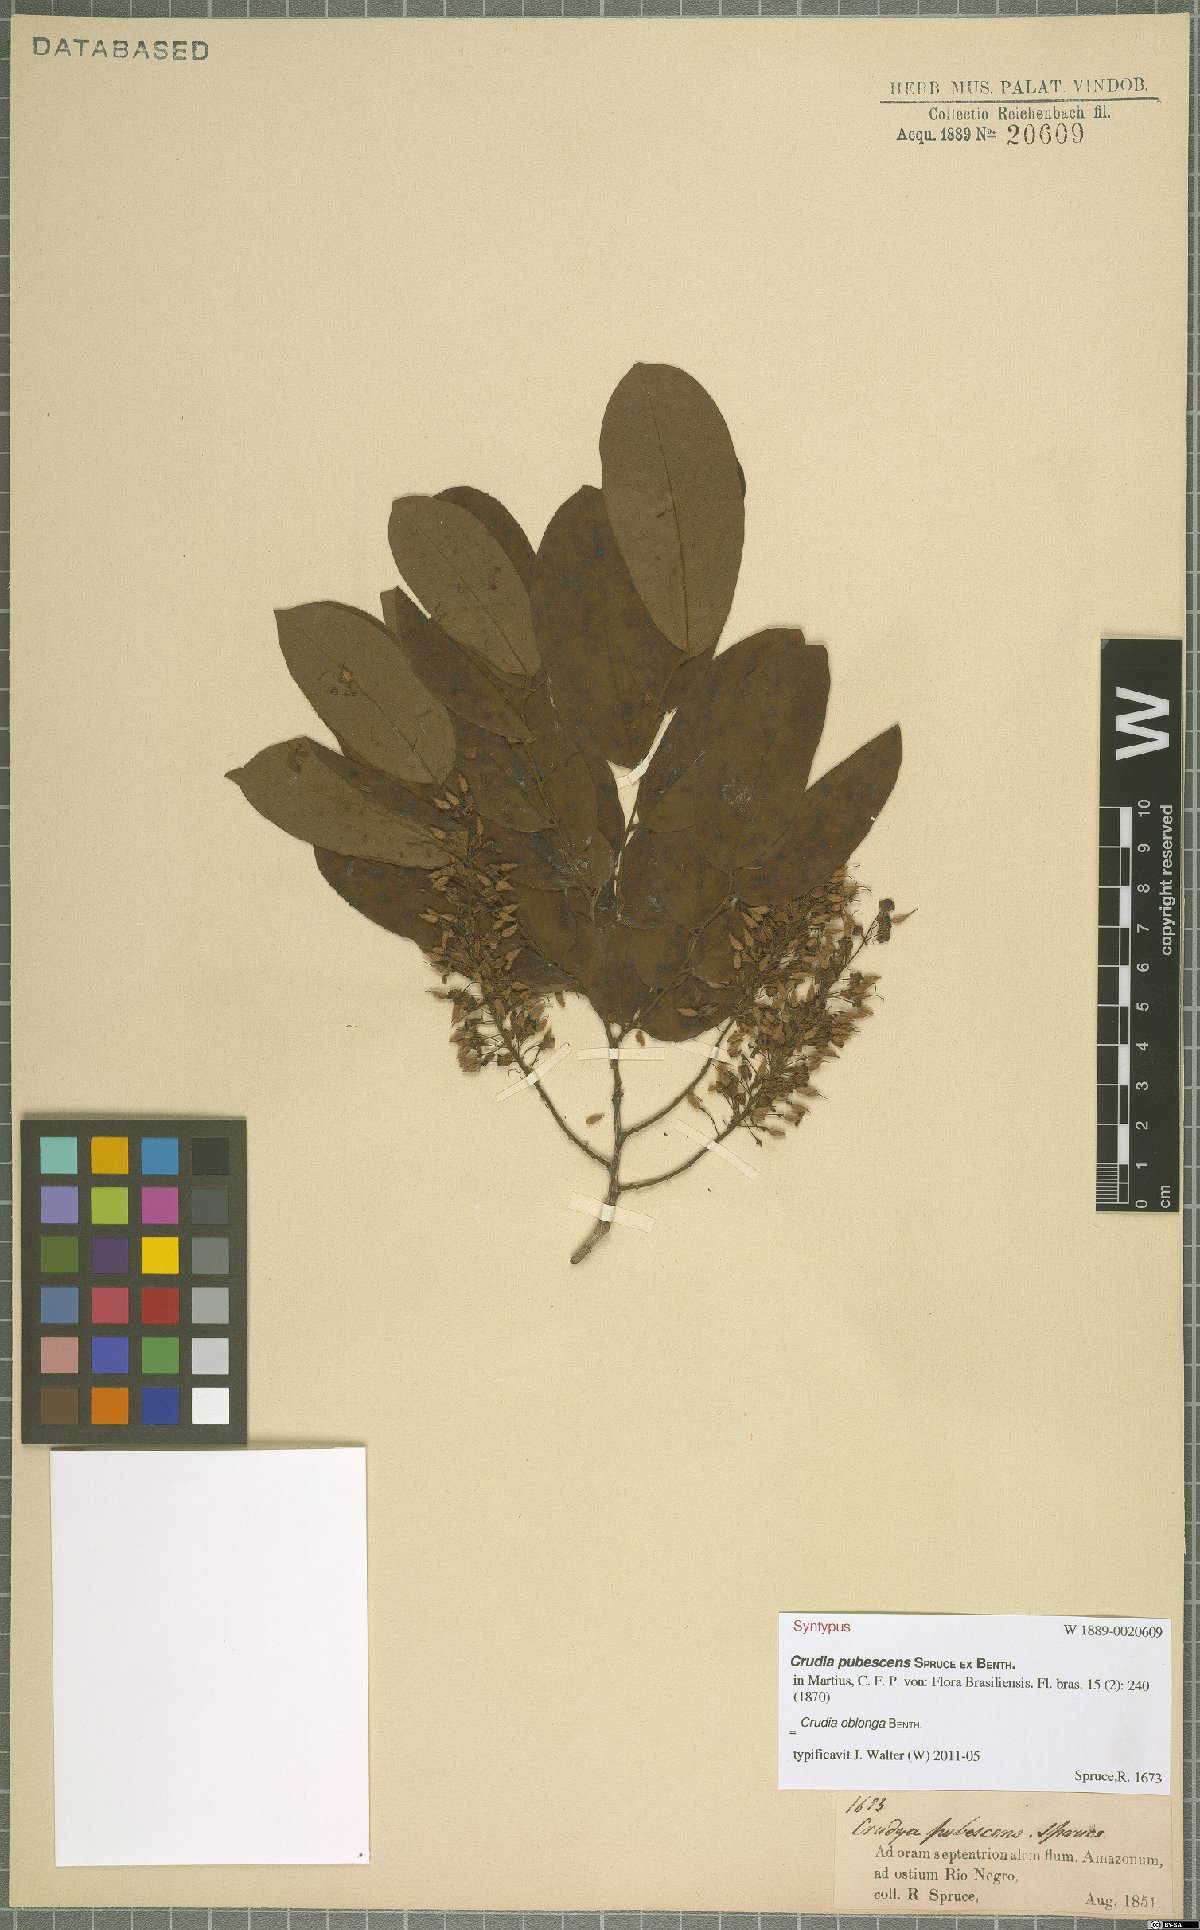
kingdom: Plantae
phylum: Tracheophyta
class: Magnoliopsida
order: Fabales
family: Fabaceae
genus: Crudia
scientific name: Crudia oblonga
